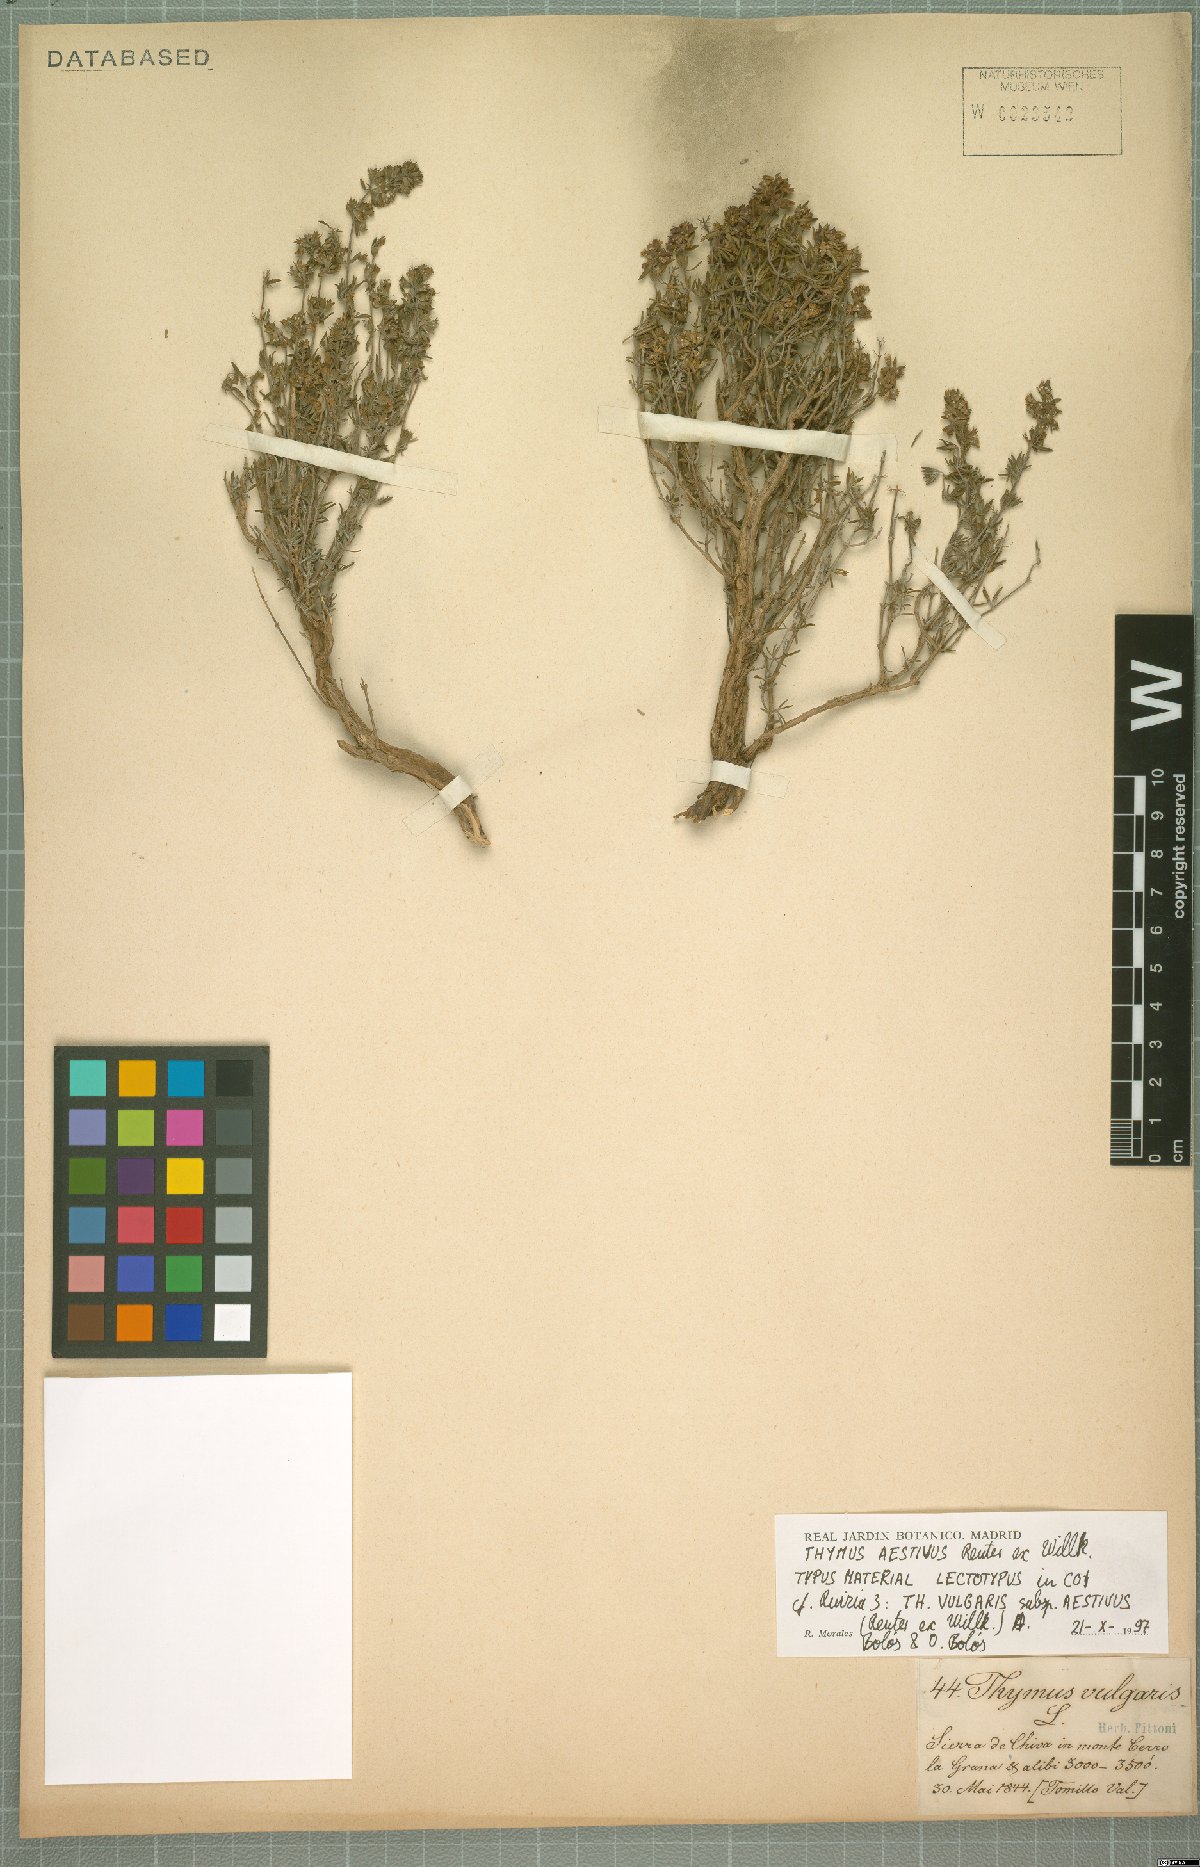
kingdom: Plantae
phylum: Tracheophyta
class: Magnoliopsida
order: Lamiales
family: Lamiaceae
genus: Thymus
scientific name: Thymus vulgaris
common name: Garden thyme
